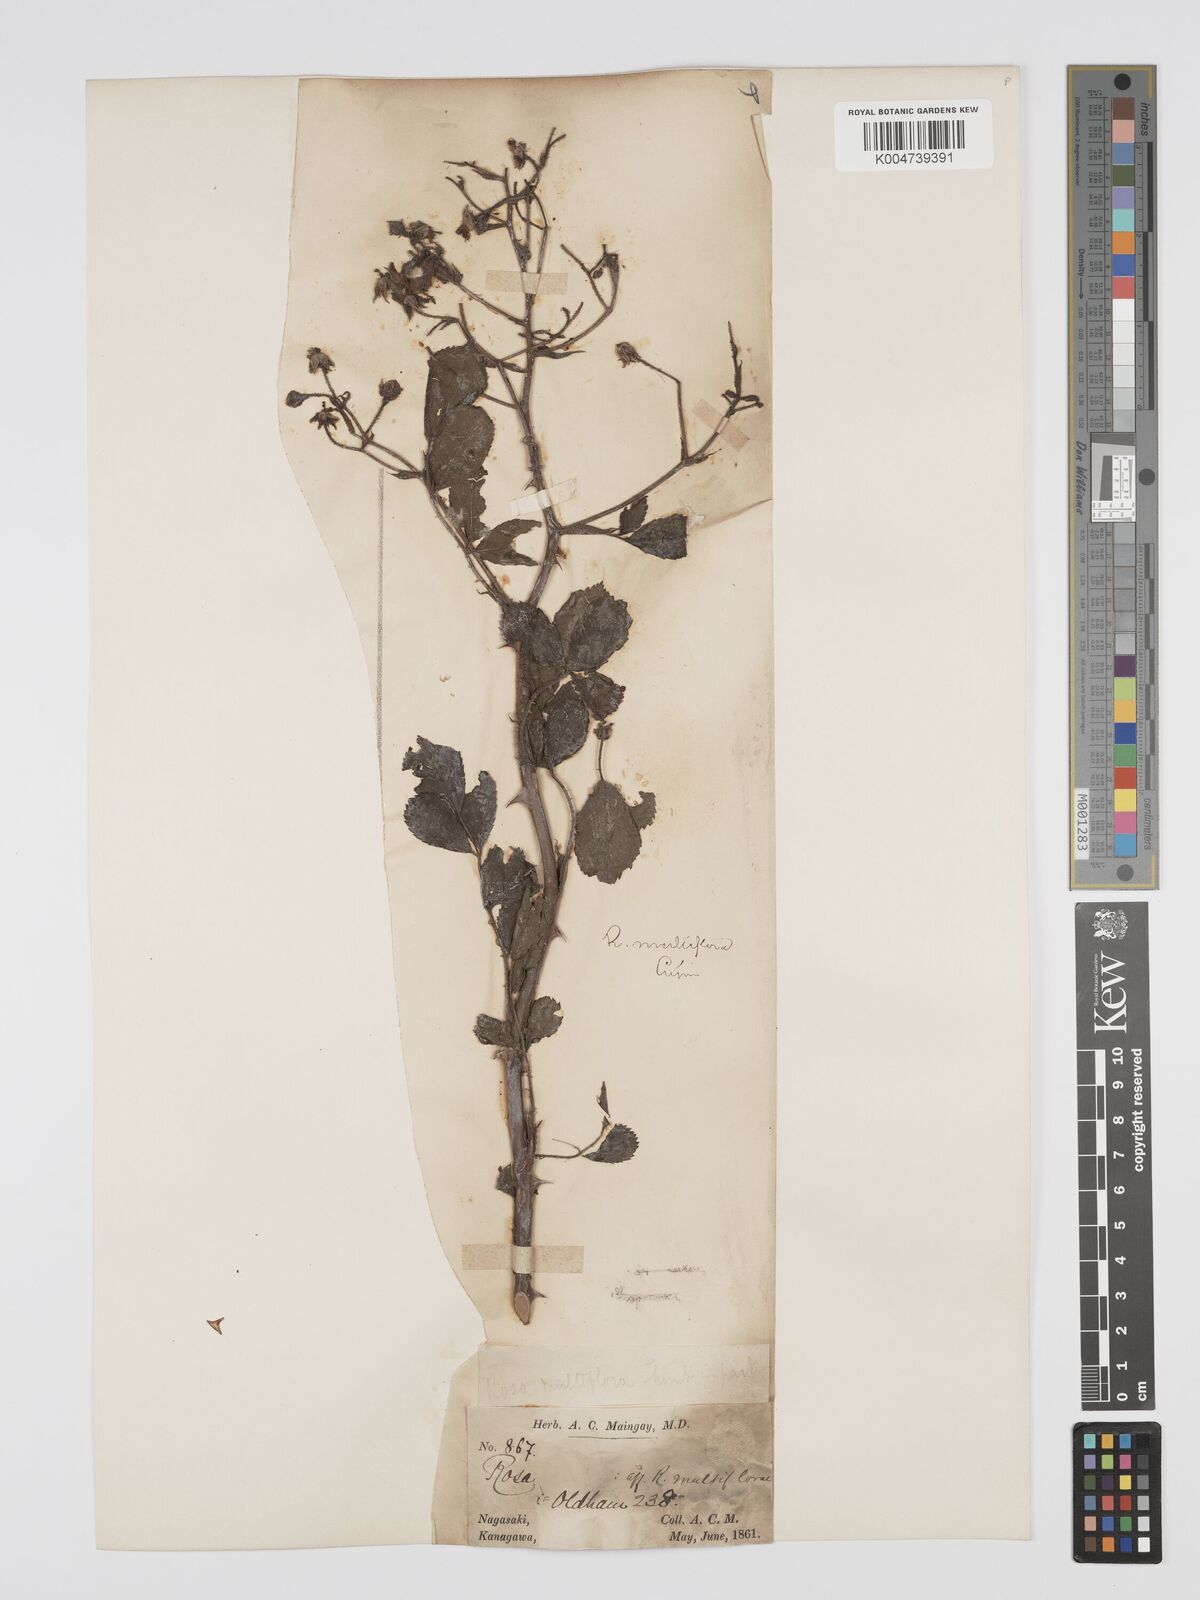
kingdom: Plantae
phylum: Tracheophyta
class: Magnoliopsida
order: Rosales
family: Rosaceae
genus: Rosa
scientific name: Rosa multiflora
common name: Multiflora rose
